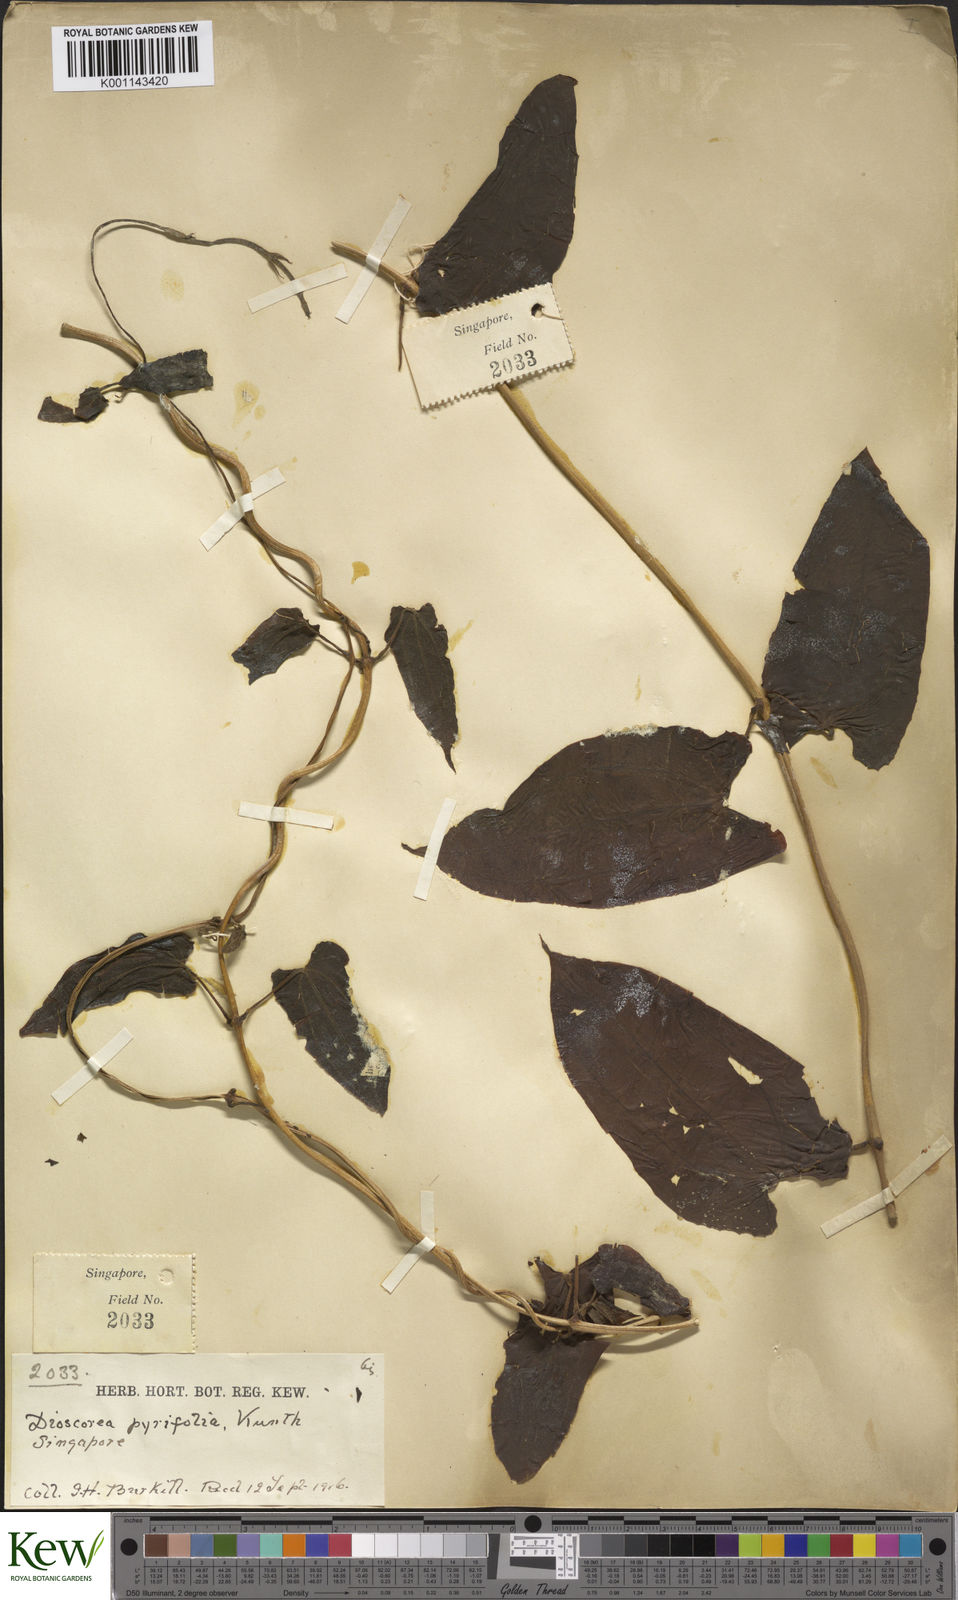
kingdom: Plantae
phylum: Tracheophyta
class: Liliopsida
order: Dioscoreales
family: Dioscoreaceae
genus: Dioscorea
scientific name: Dioscorea pyrifolia
